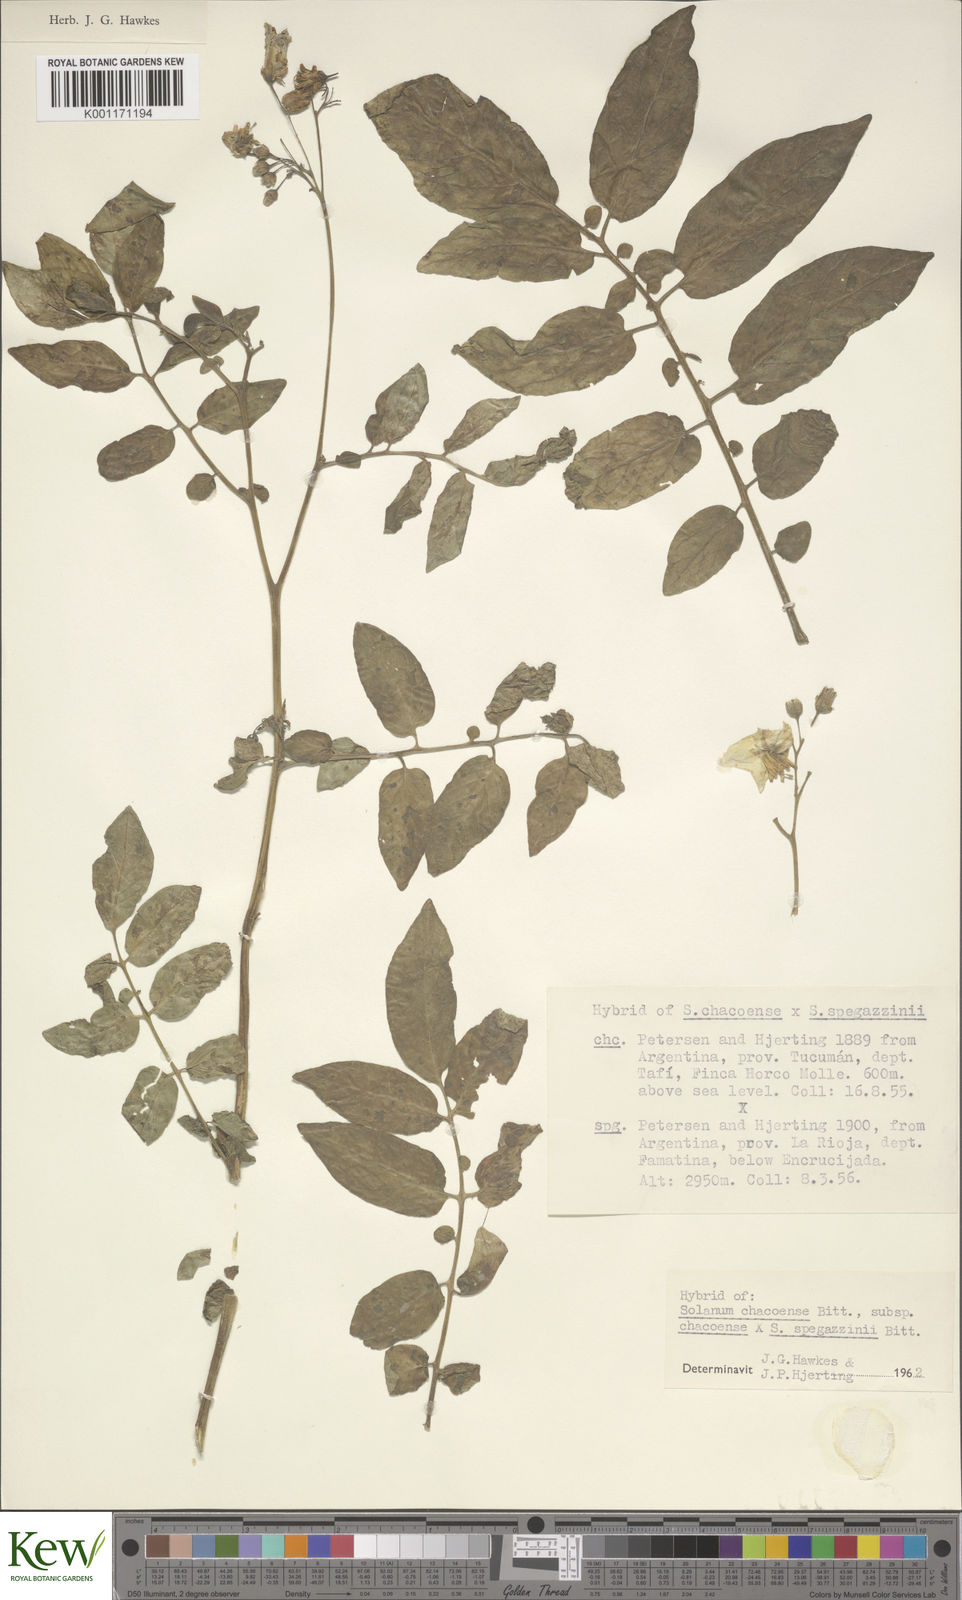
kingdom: Plantae
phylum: Tracheophyta
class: Magnoliopsida
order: Solanales
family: Solanaceae
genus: Solanum
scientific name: Solanum chacoense
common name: Chaco potato
